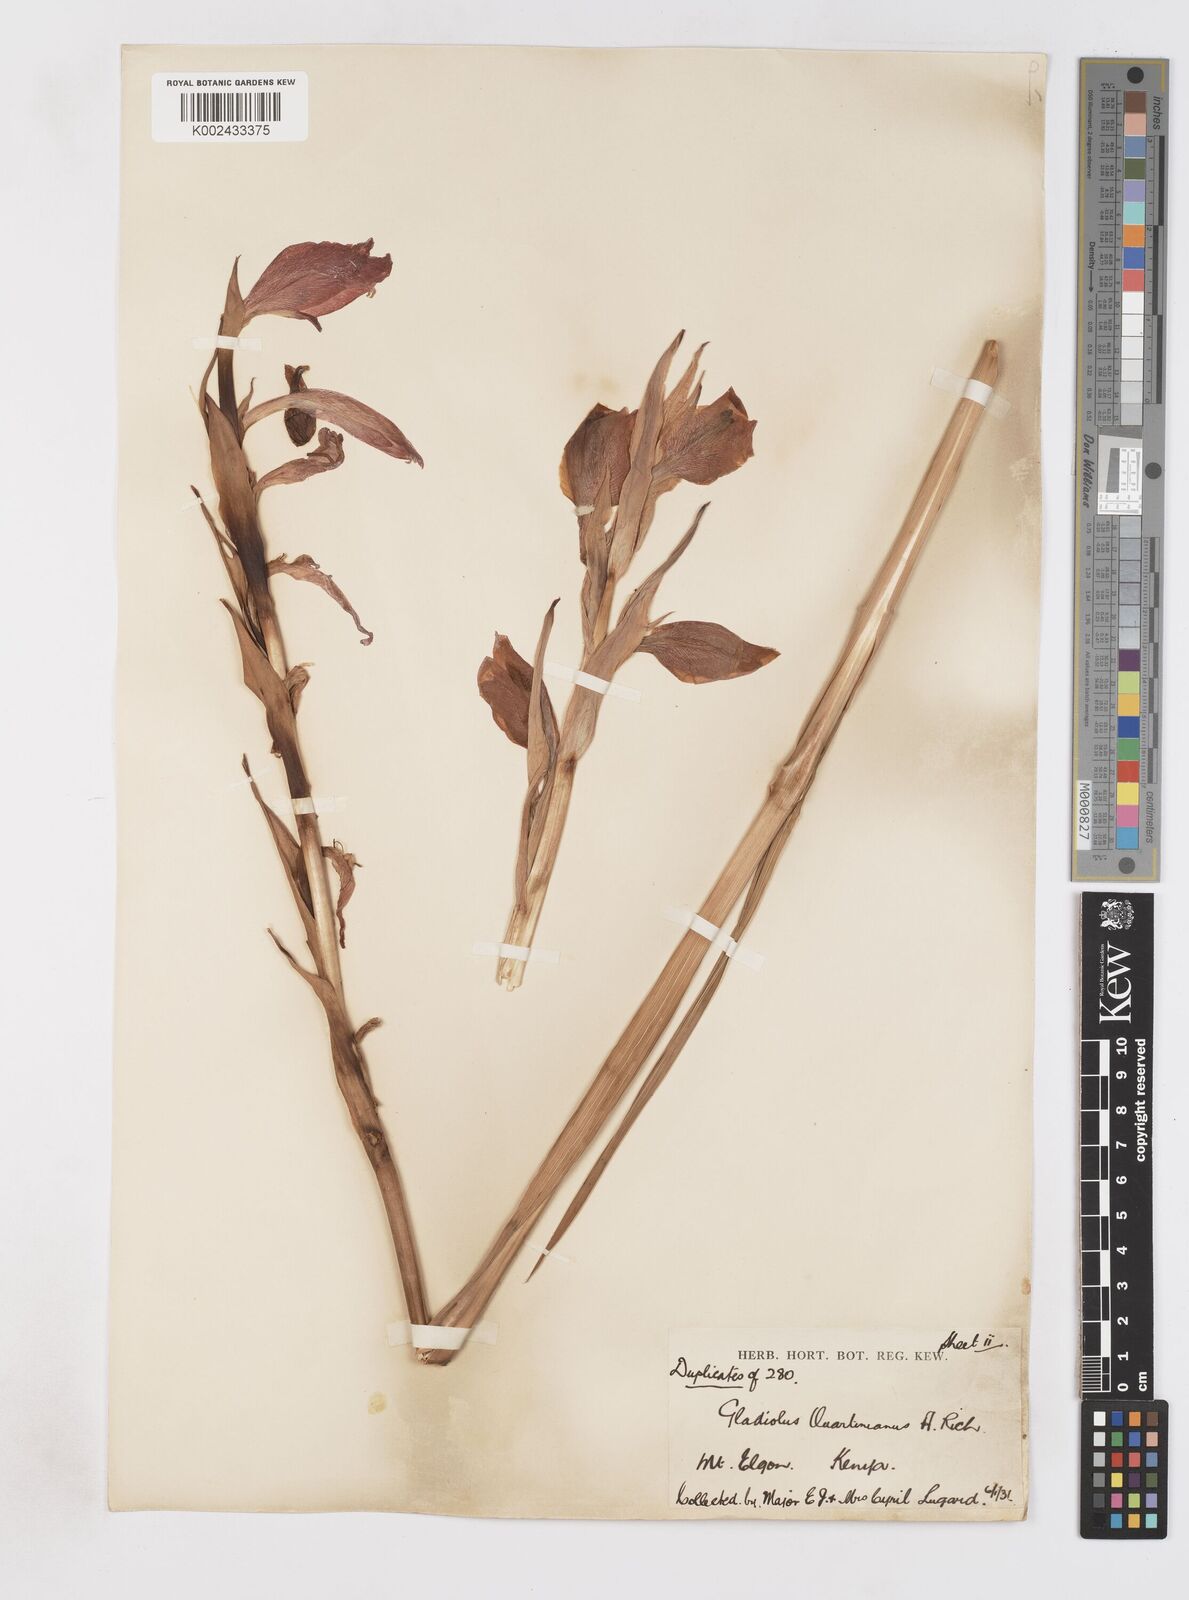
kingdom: Plantae
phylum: Tracheophyta
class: Liliopsida
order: Asparagales
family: Iridaceae
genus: Gladiolus
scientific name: Gladiolus dalenii
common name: Cornflag
